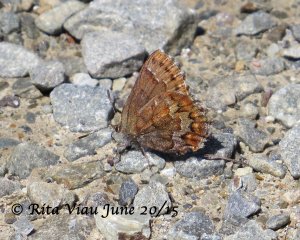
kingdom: Animalia
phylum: Arthropoda
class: Insecta
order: Lepidoptera
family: Lycaenidae
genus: Incisalia
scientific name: Incisalia niphon
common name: Eastern Pine Elfin
